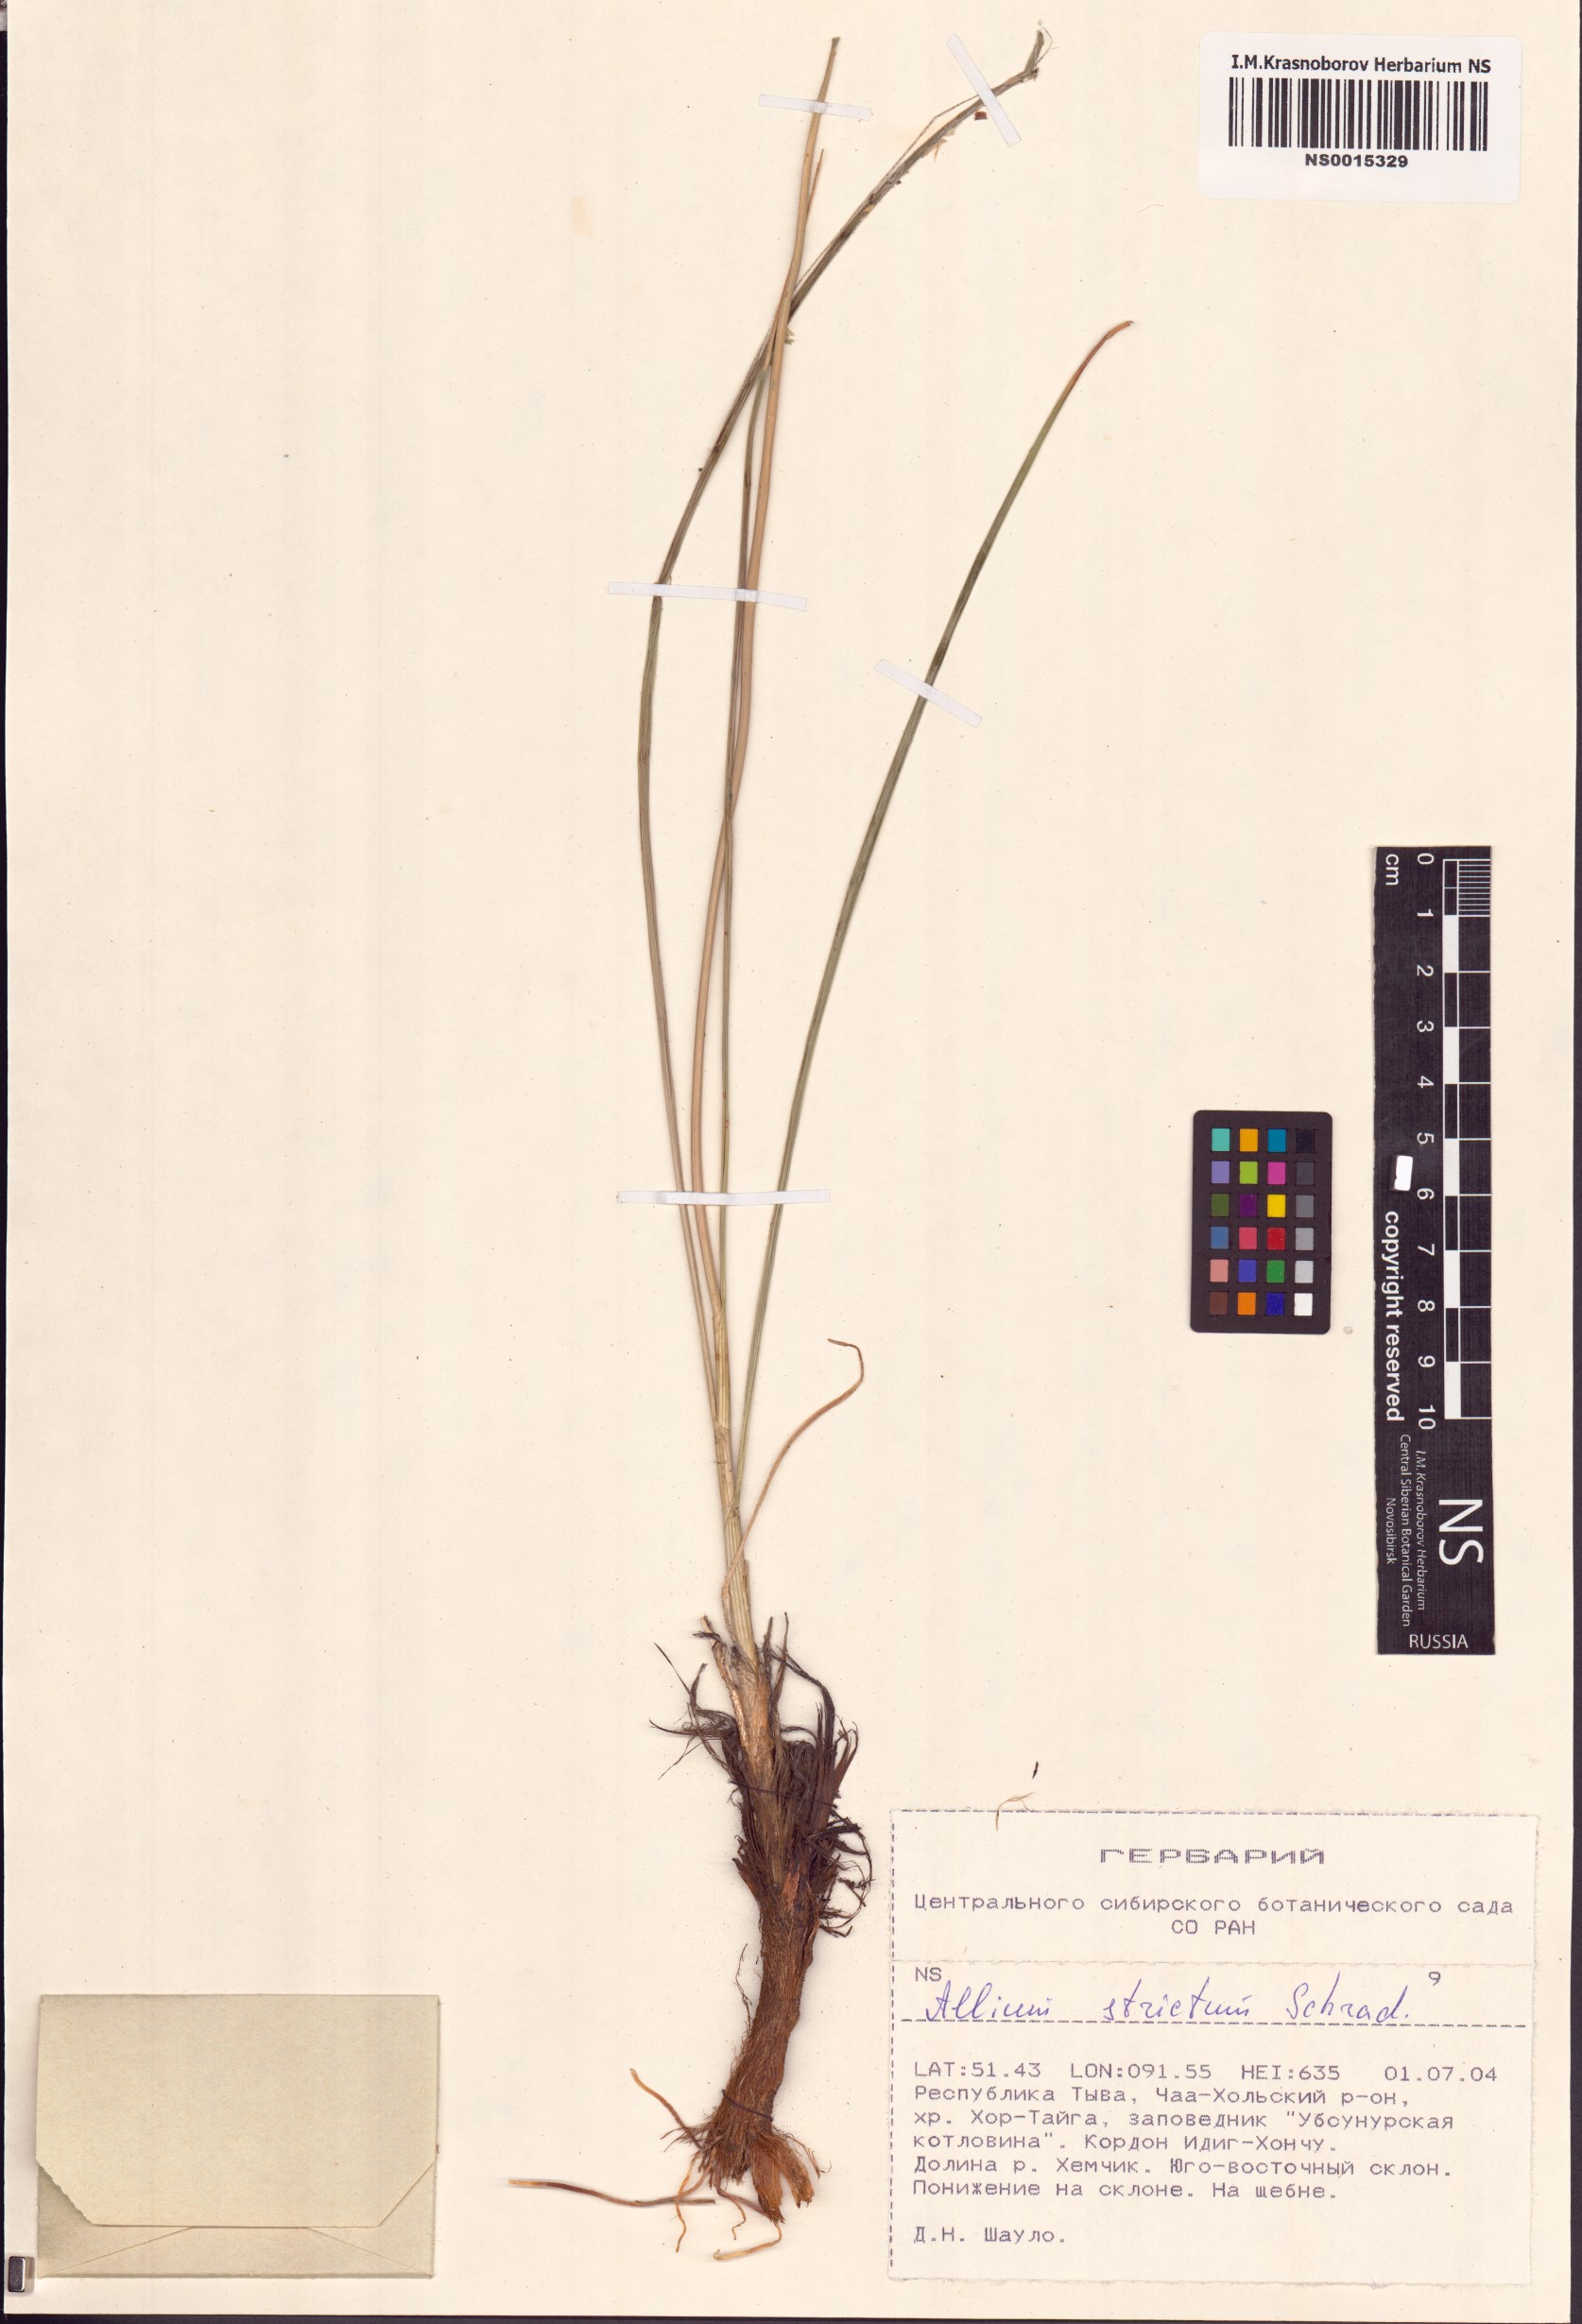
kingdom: Plantae
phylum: Tracheophyta
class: Liliopsida
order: Asparagales
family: Amaryllidaceae
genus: Allium
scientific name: Allium strictum
